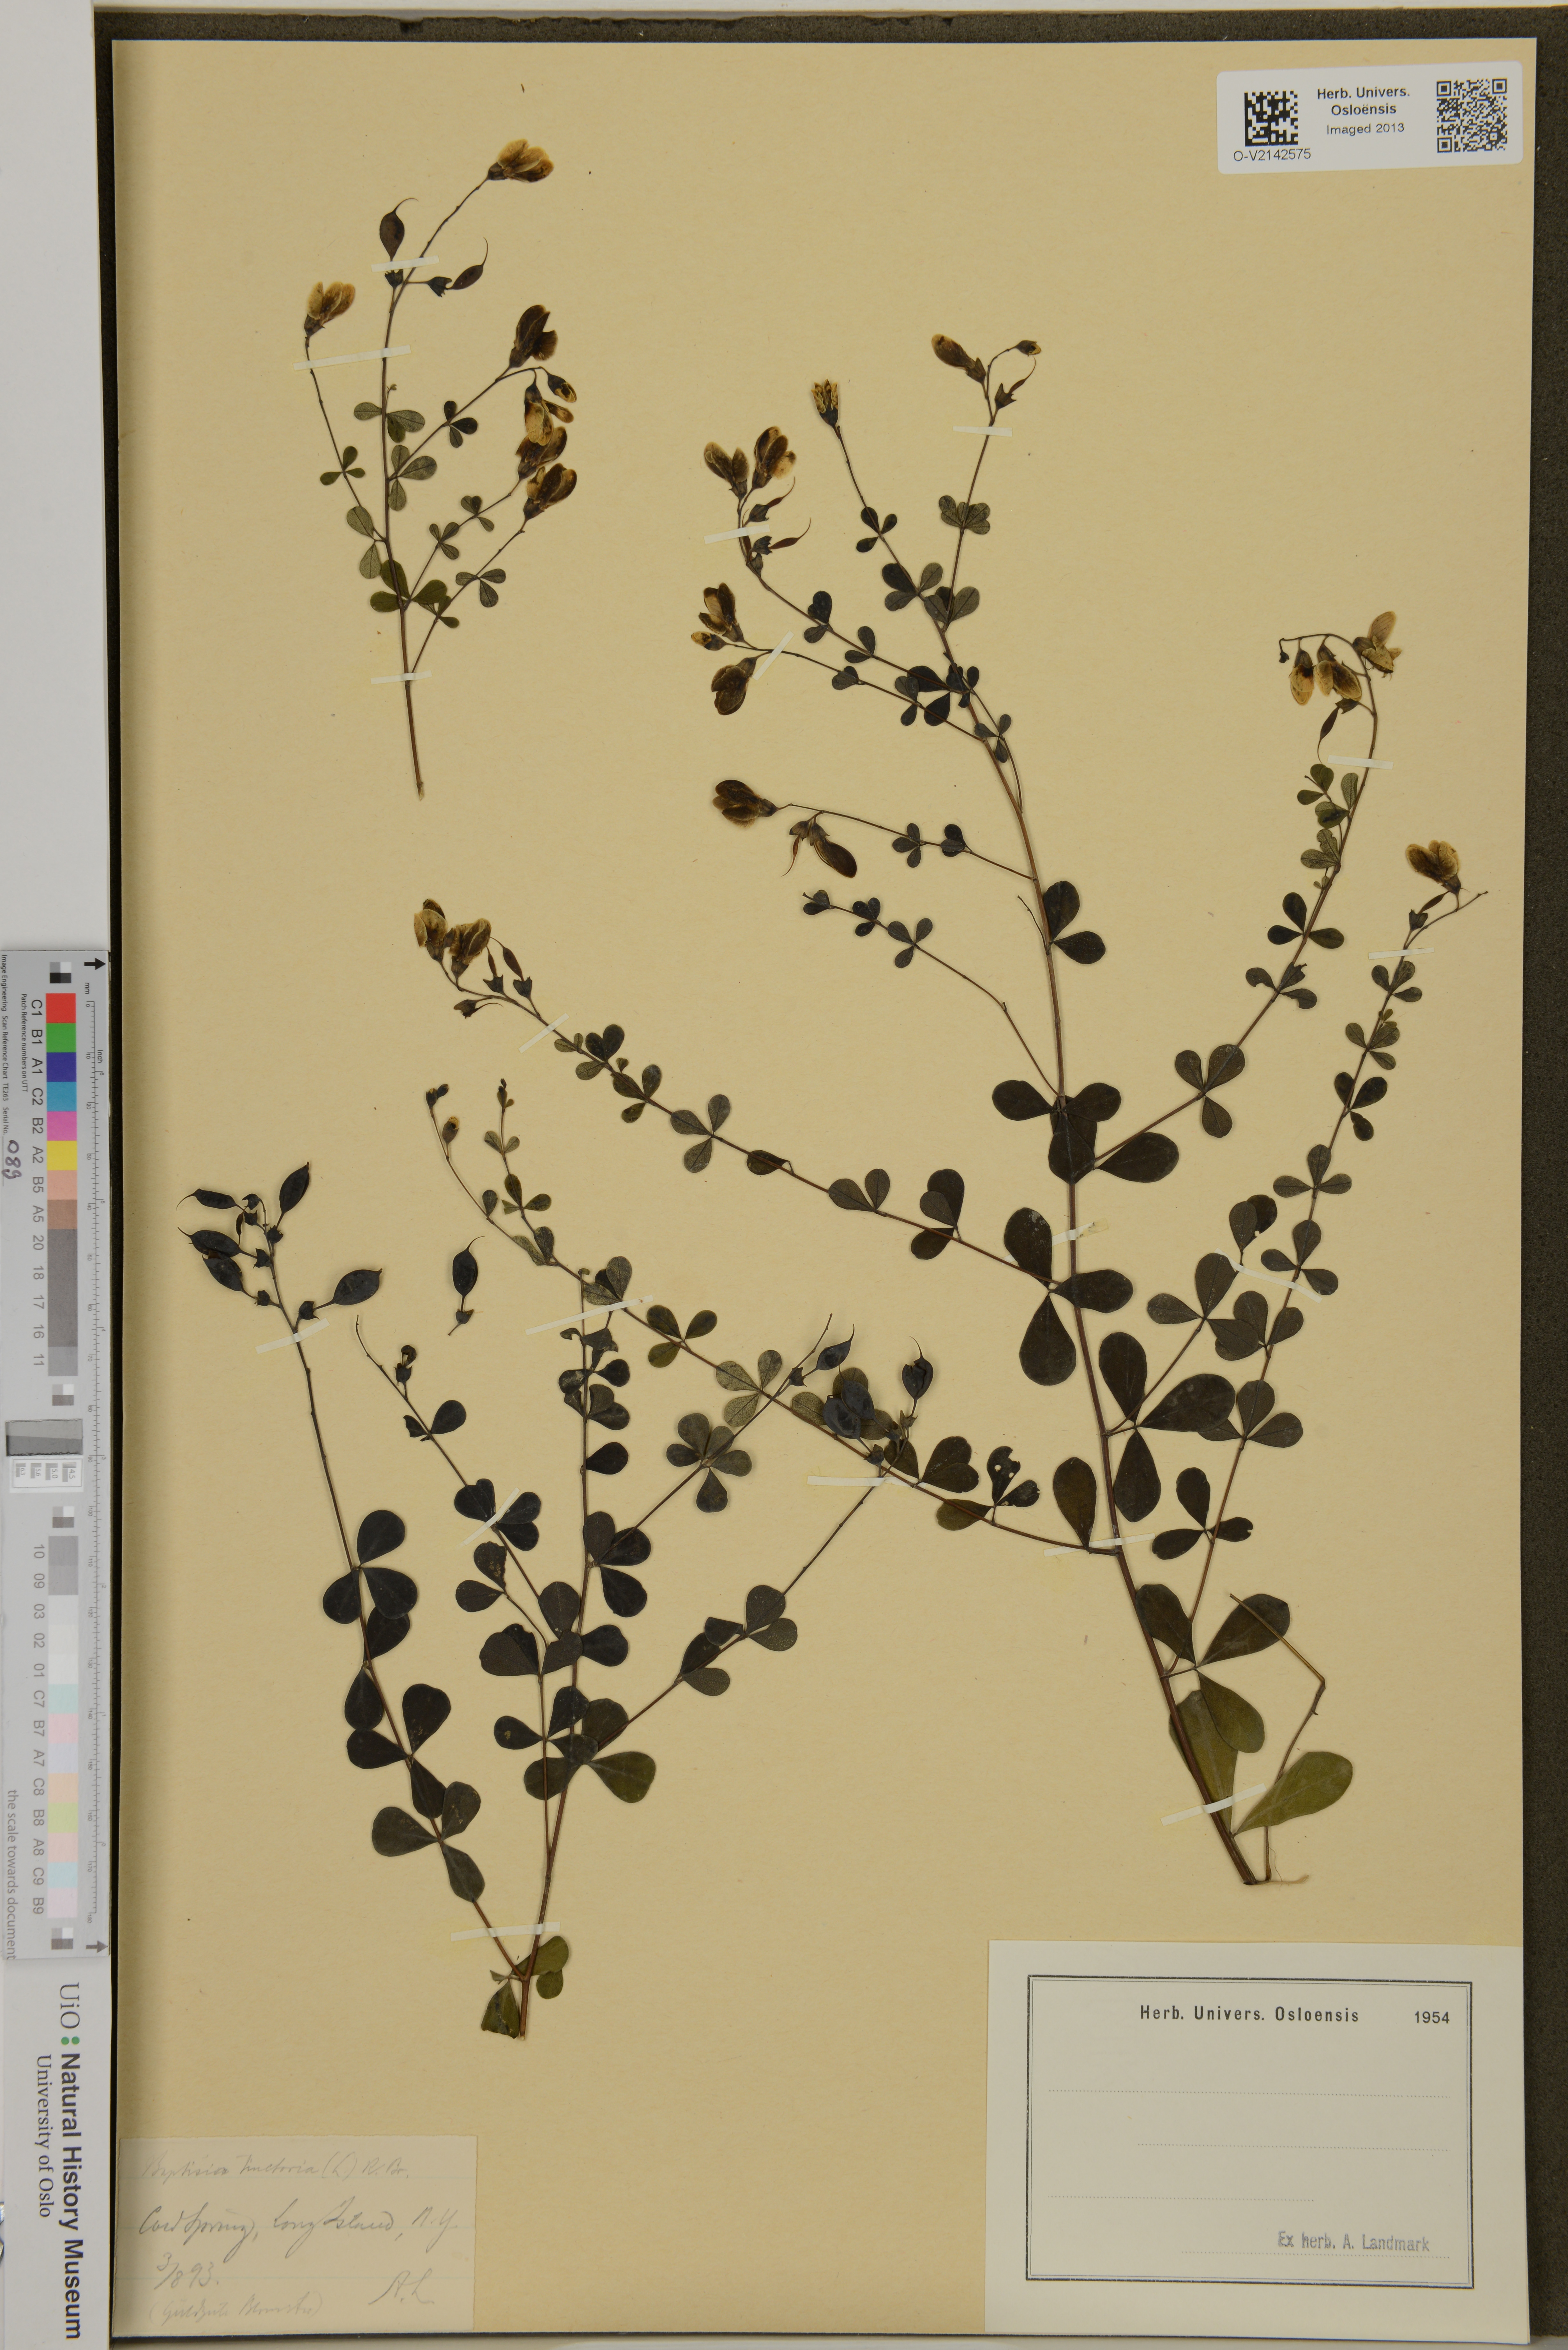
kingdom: Plantae
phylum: Tracheophyta
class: Magnoliopsida
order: Fabales
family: Fabaceae
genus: Baptisia
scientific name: Baptisia tinctoria
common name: Wild indigo
